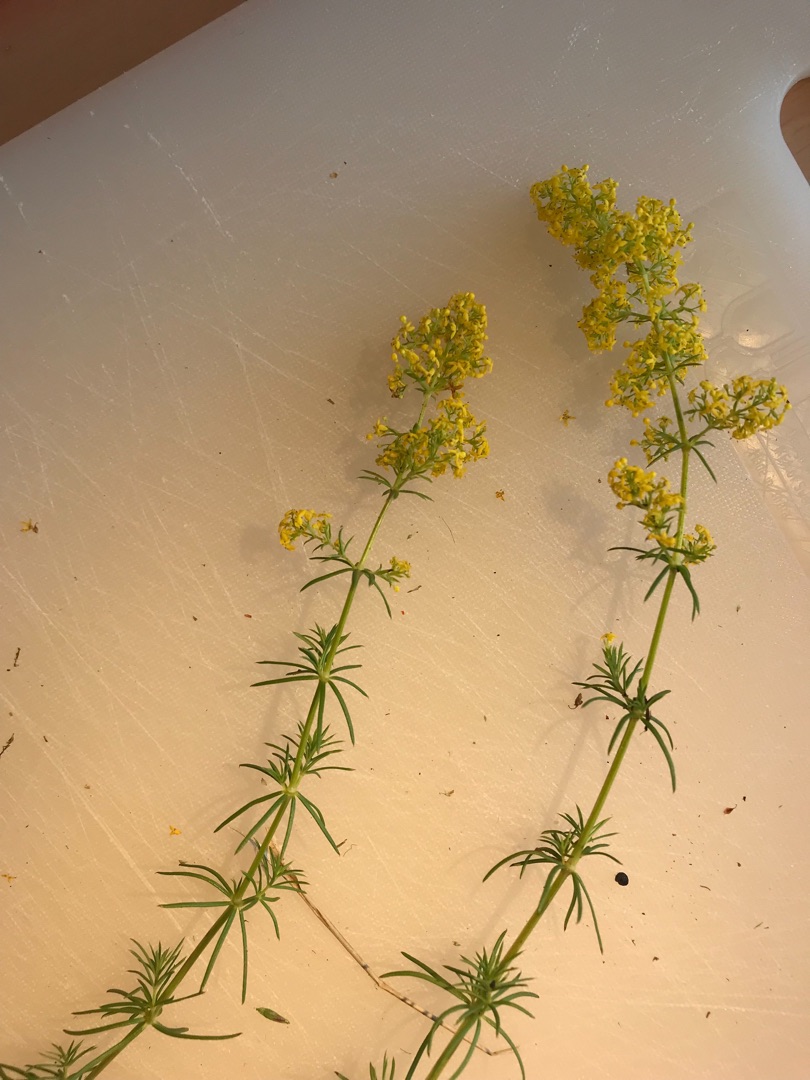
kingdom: Plantae
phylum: Tracheophyta
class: Magnoliopsida
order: Gentianales
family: Rubiaceae
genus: Galium
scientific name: Galium verum
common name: Gul snerre
